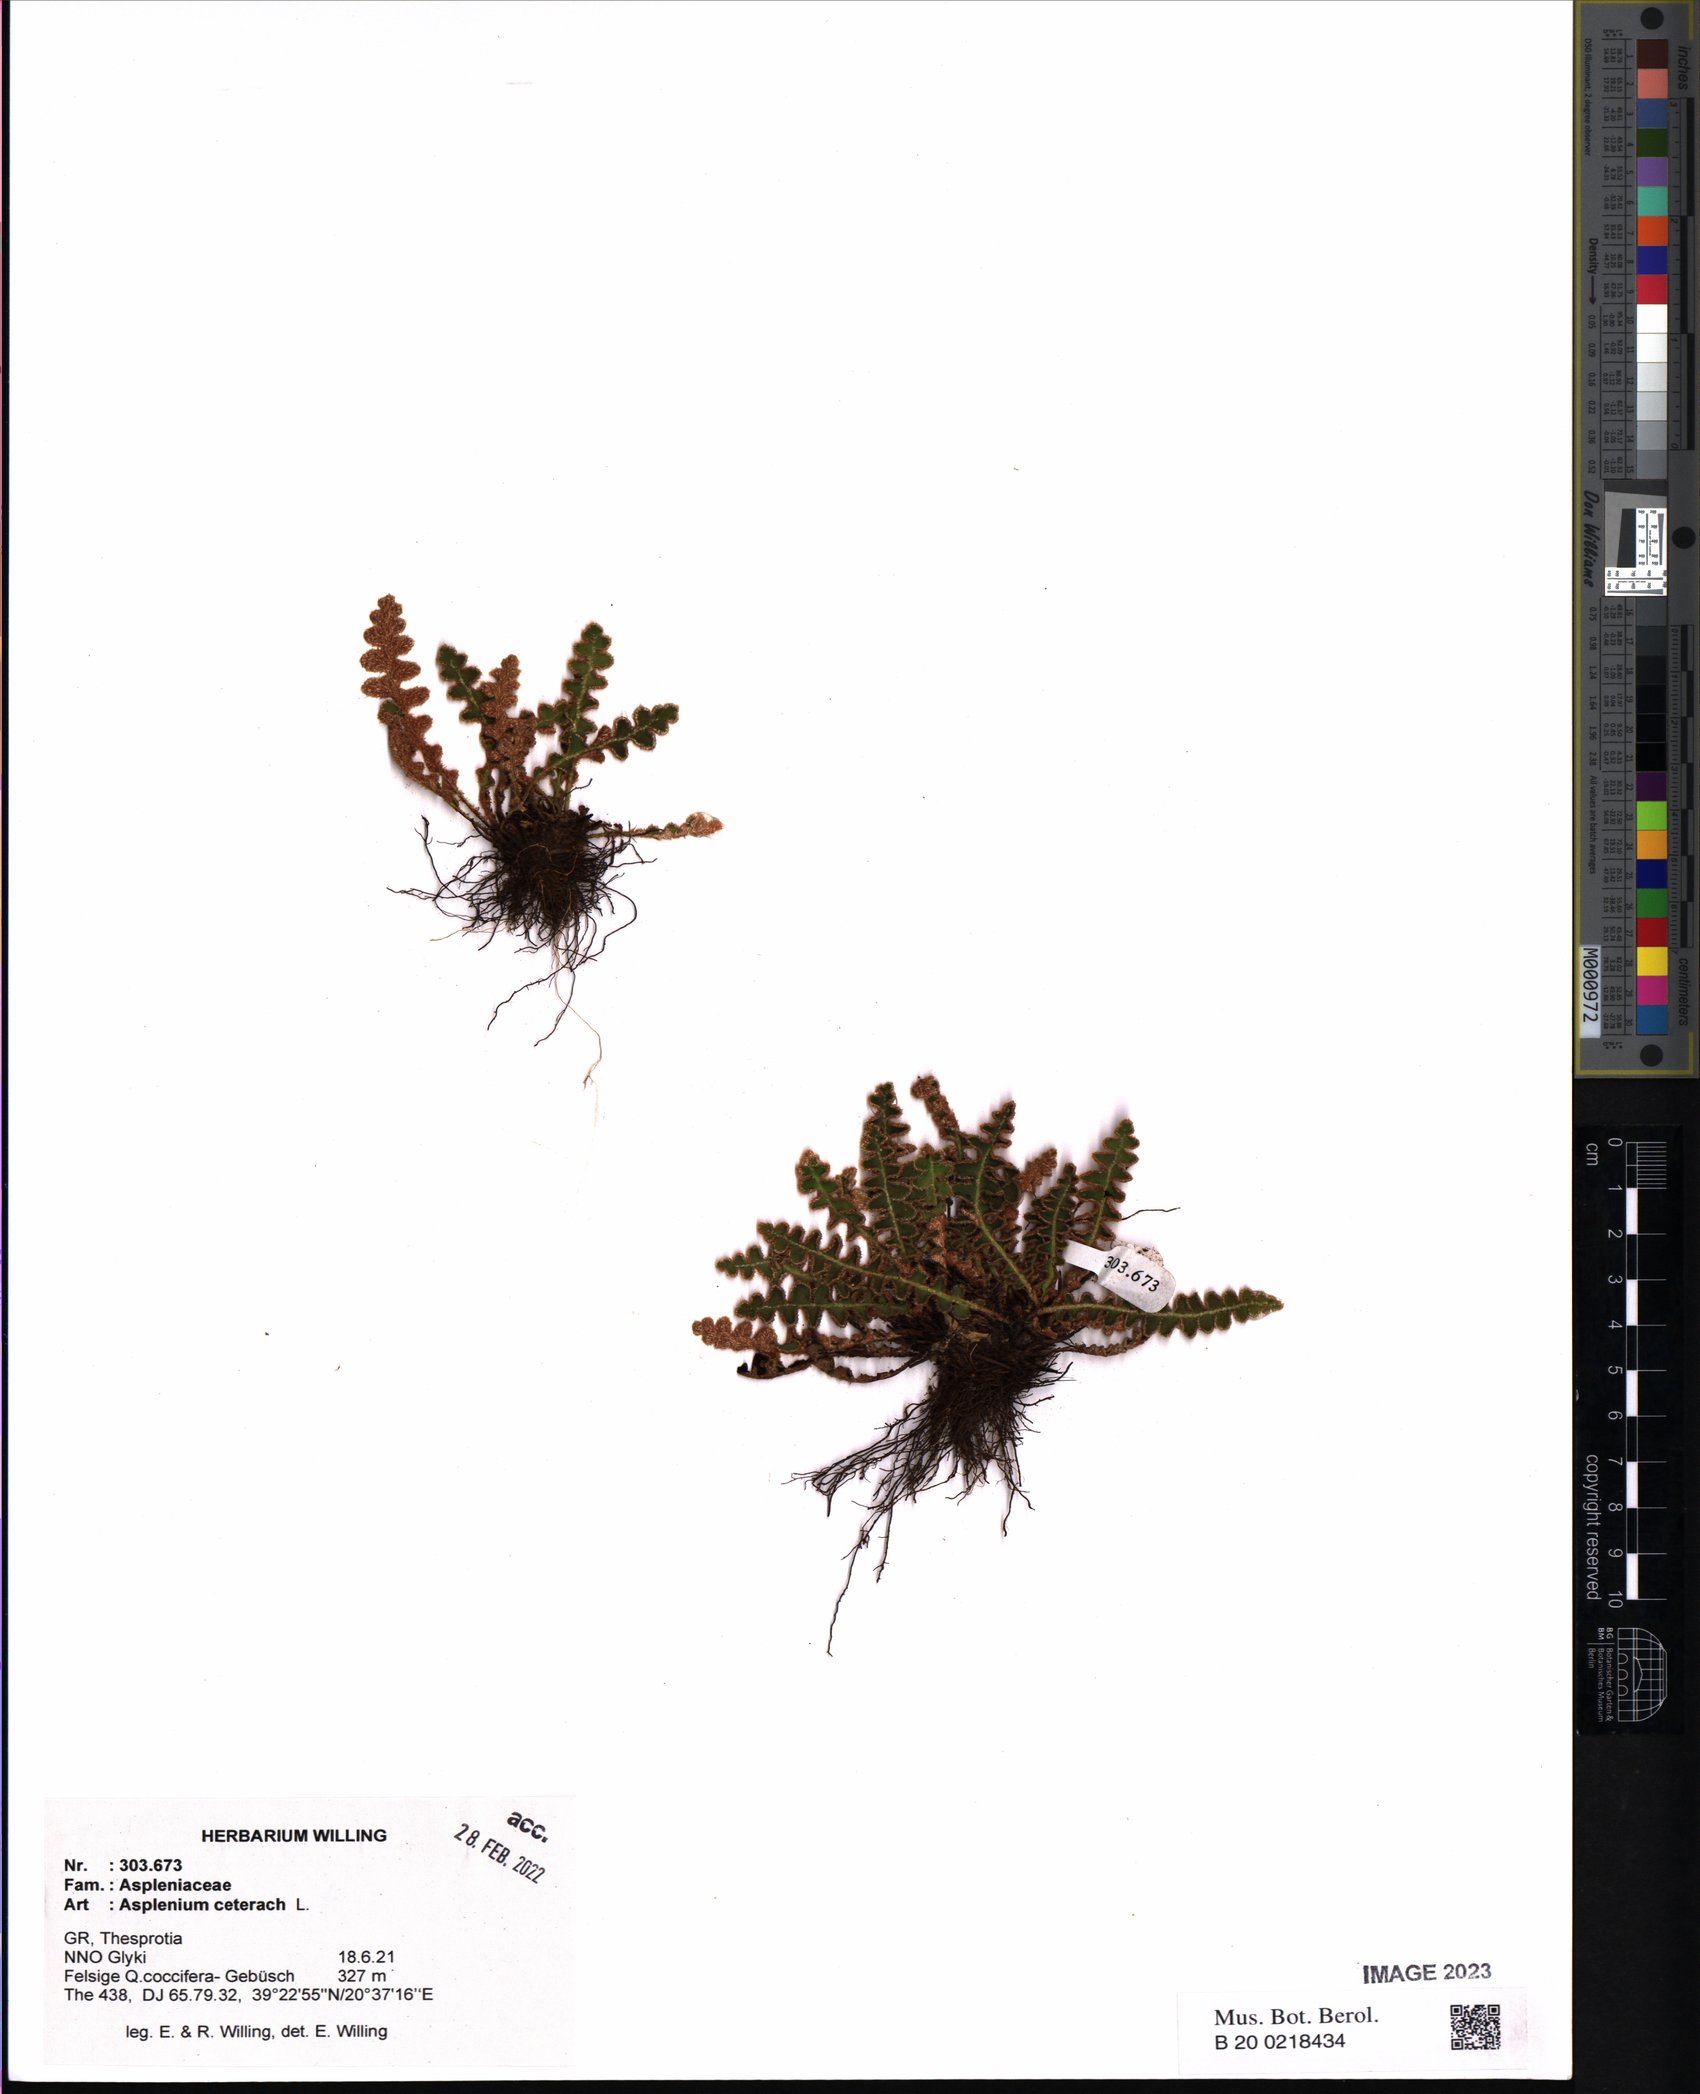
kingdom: Plantae
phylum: Tracheophyta
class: Polypodiopsida
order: Polypodiales
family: Aspleniaceae
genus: Asplenium
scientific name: Asplenium ceterach
